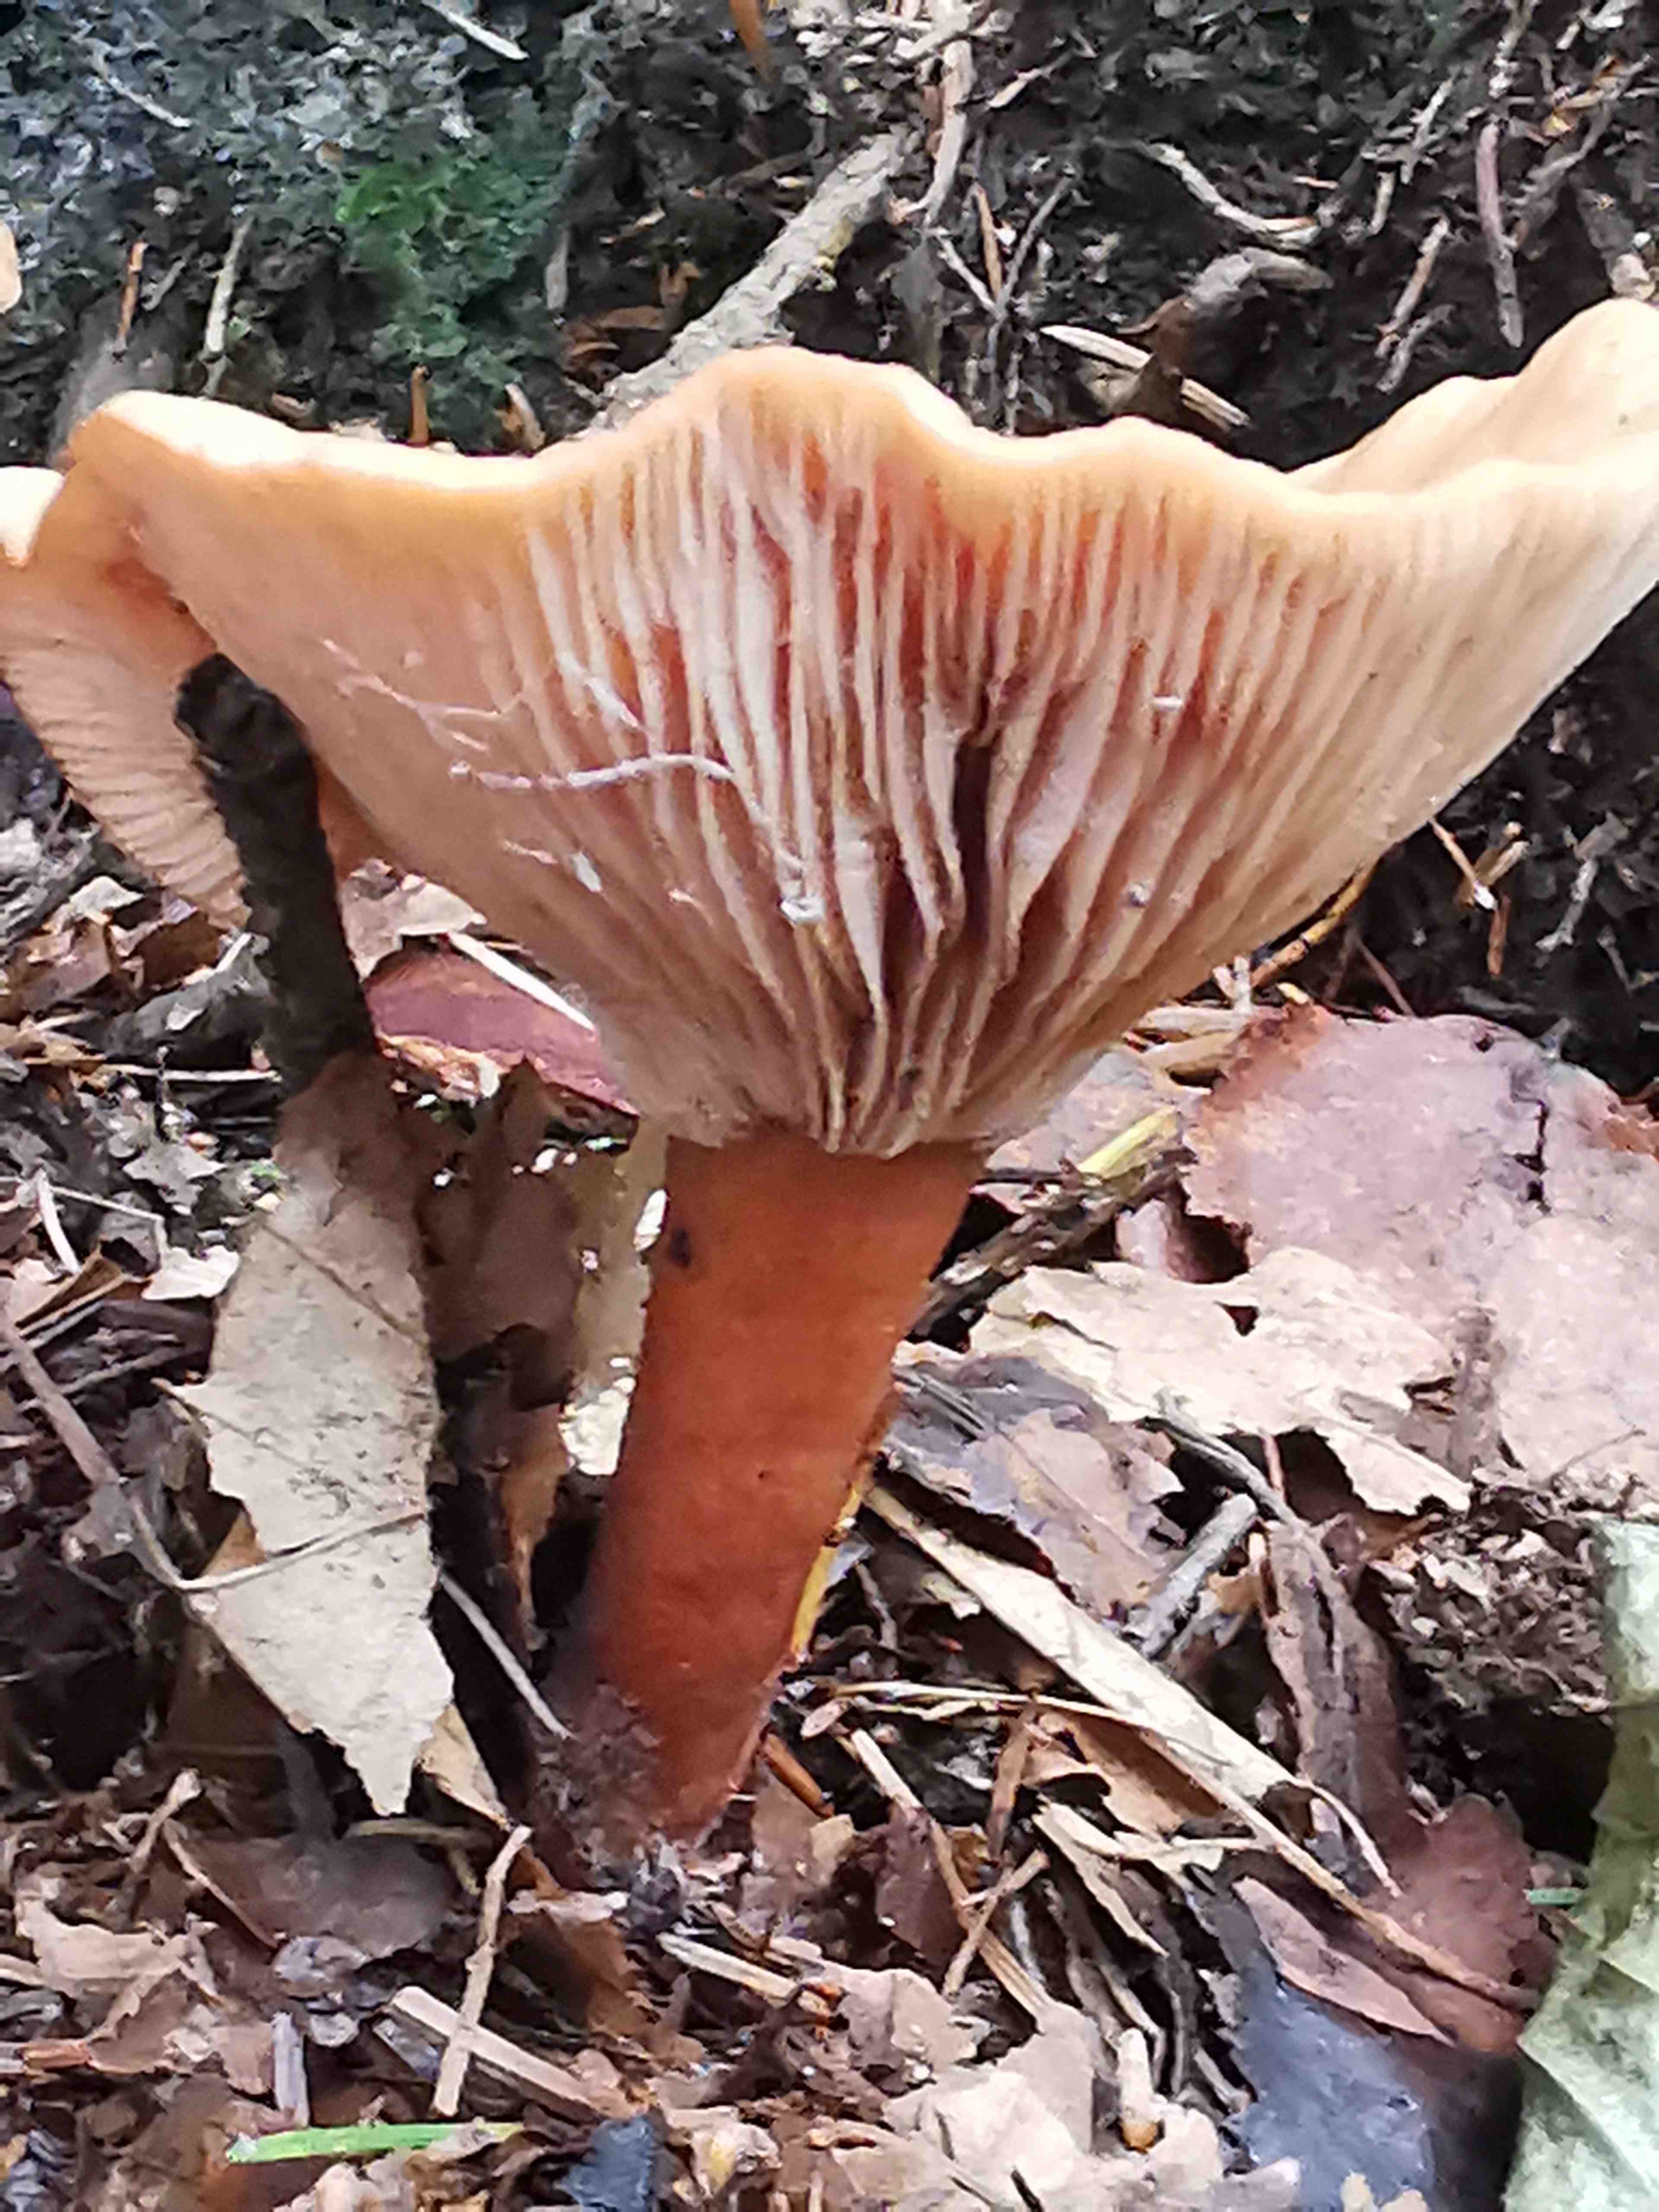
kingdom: Fungi
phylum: Basidiomycota
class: Agaricomycetes
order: Russulales
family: Russulaceae
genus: Lactarius
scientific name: Lactarius tabidus
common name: rynket mælkehat
